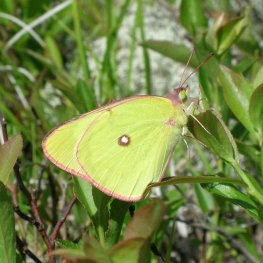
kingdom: Animalia
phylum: Arthropoda
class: Insecta
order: Lepidoptera
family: Pieridae
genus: Colias
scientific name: Colias interior
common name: Pink-edged Sulphur
